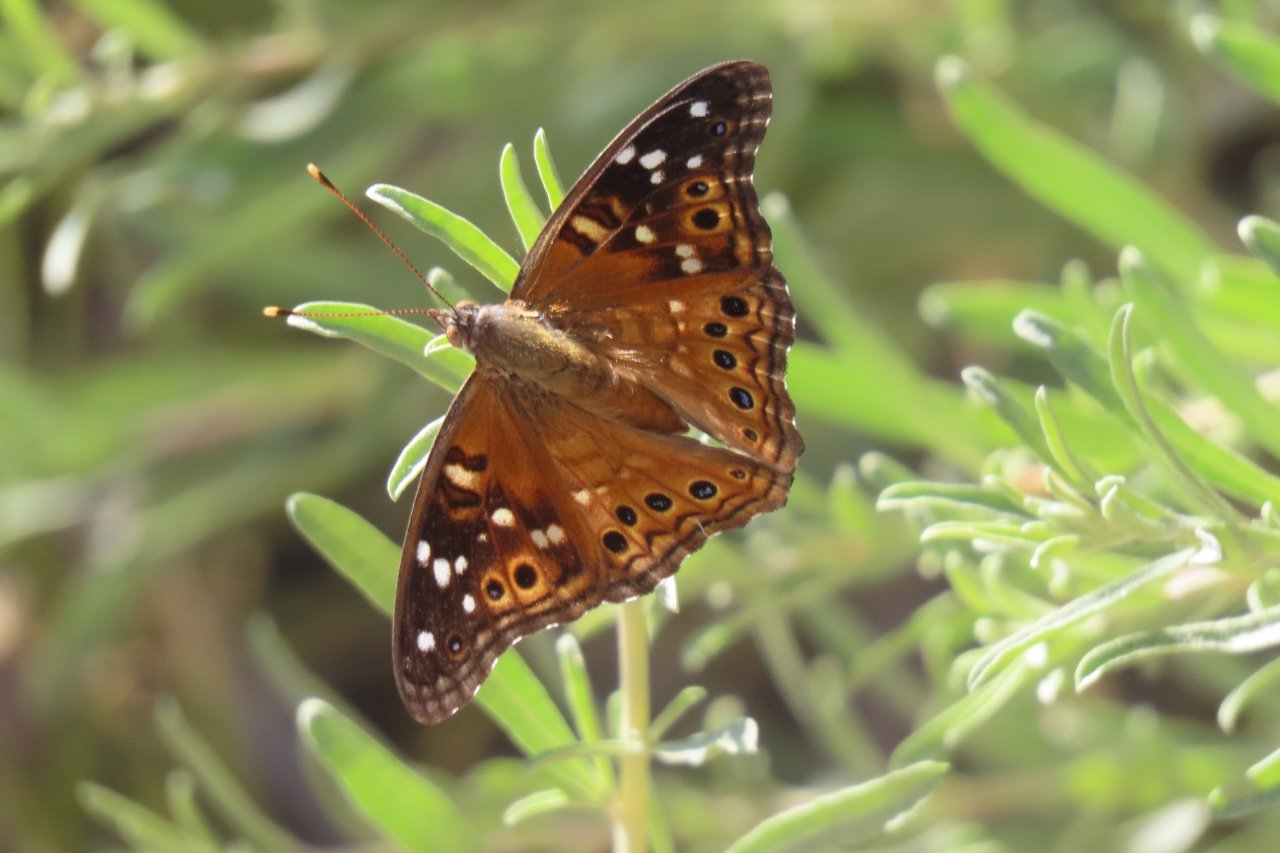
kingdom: Animalia
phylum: Arthropoda
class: Insecta
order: Lepidoptera
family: Nymphalidae
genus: Asterocampa
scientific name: Asterocampa leilia
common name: Empress Leilia
